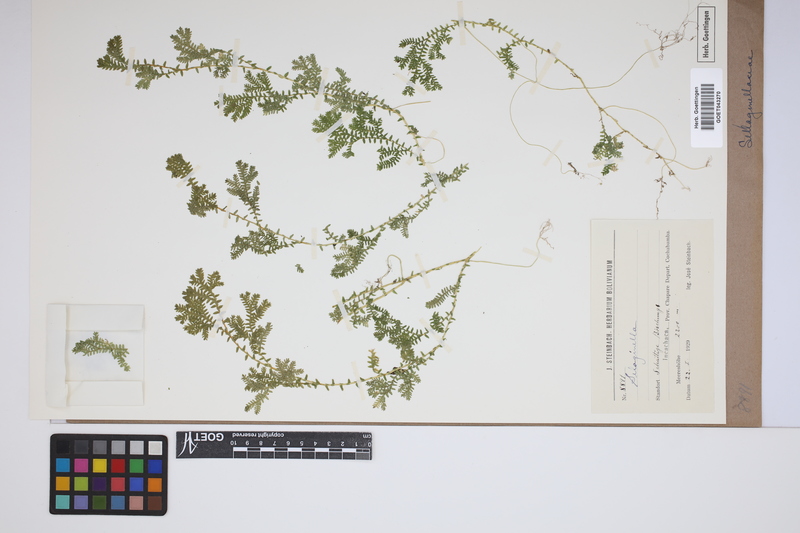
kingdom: Plantae
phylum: Tracheophyta
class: Lycopodiopsida
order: Selaginellales
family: Selaginellaceae
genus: Selaginella
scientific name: Selaginella
